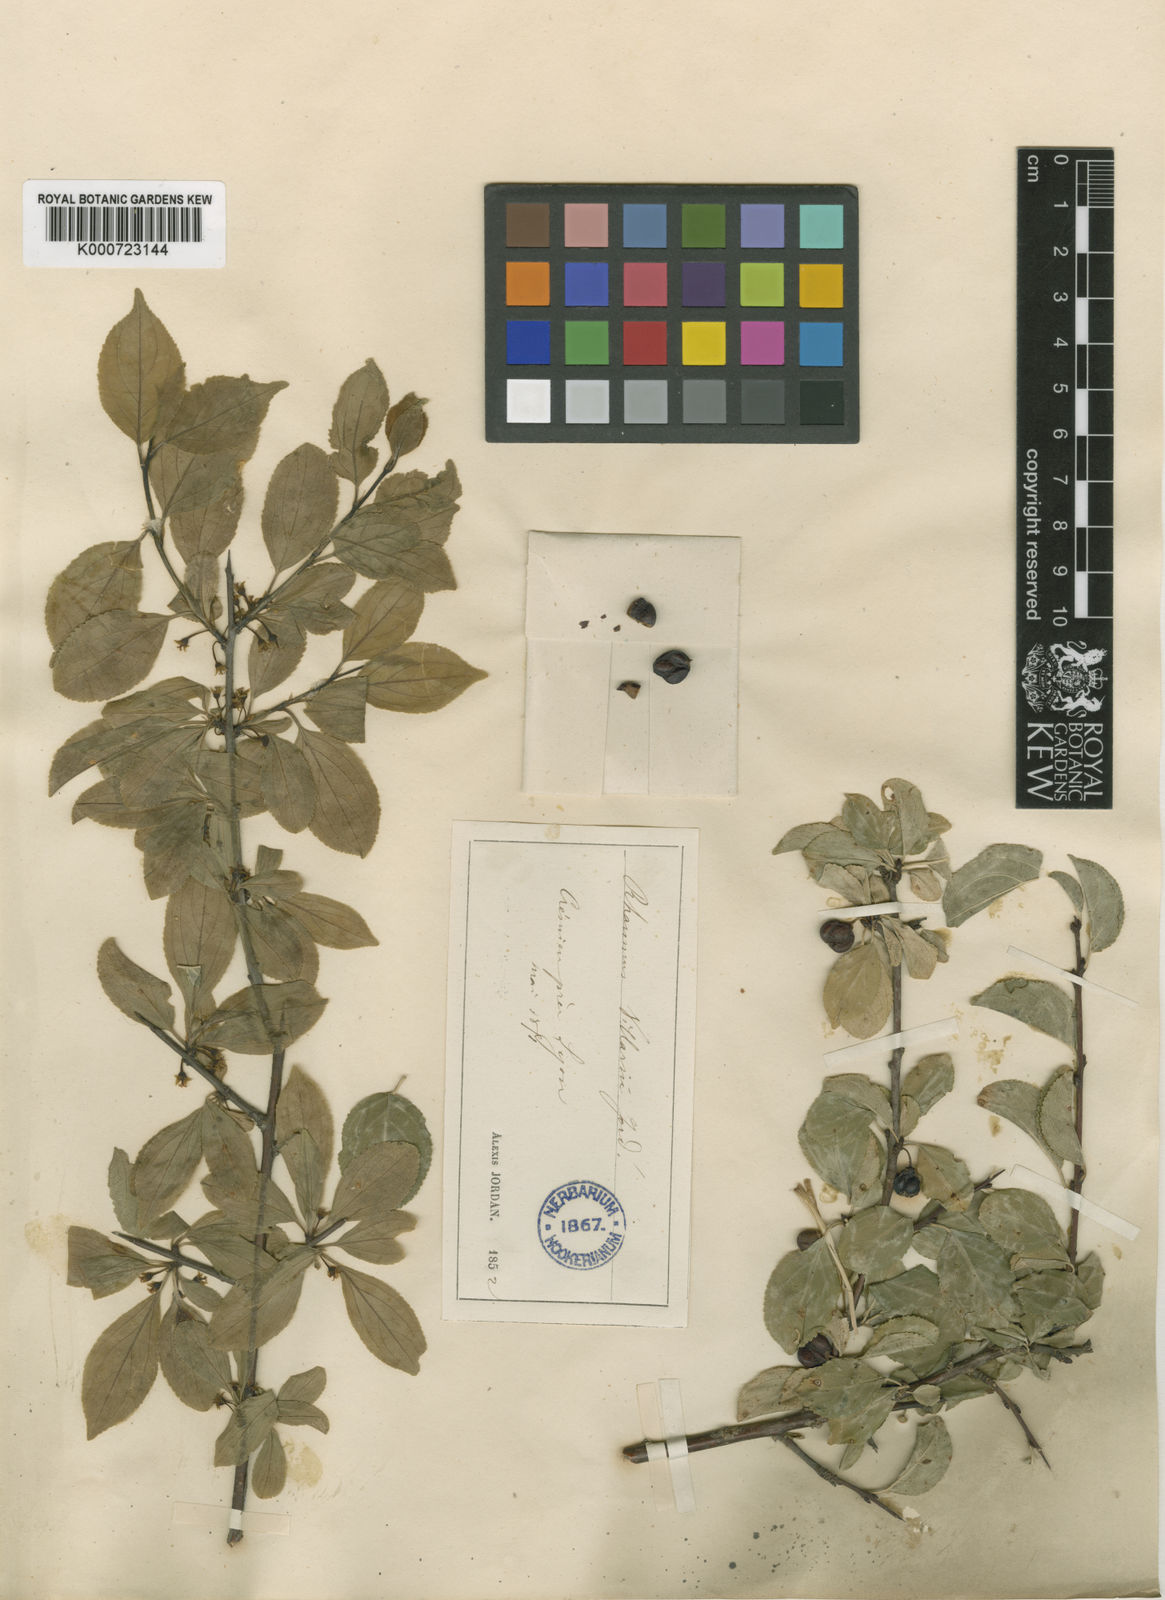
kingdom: Plantae
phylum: Tracheophyta
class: Magnoliopsida
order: Rosales
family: Rhamnaceae
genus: Rhamnus
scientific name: Rhamnus saxatilis
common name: Rock buckthorn
